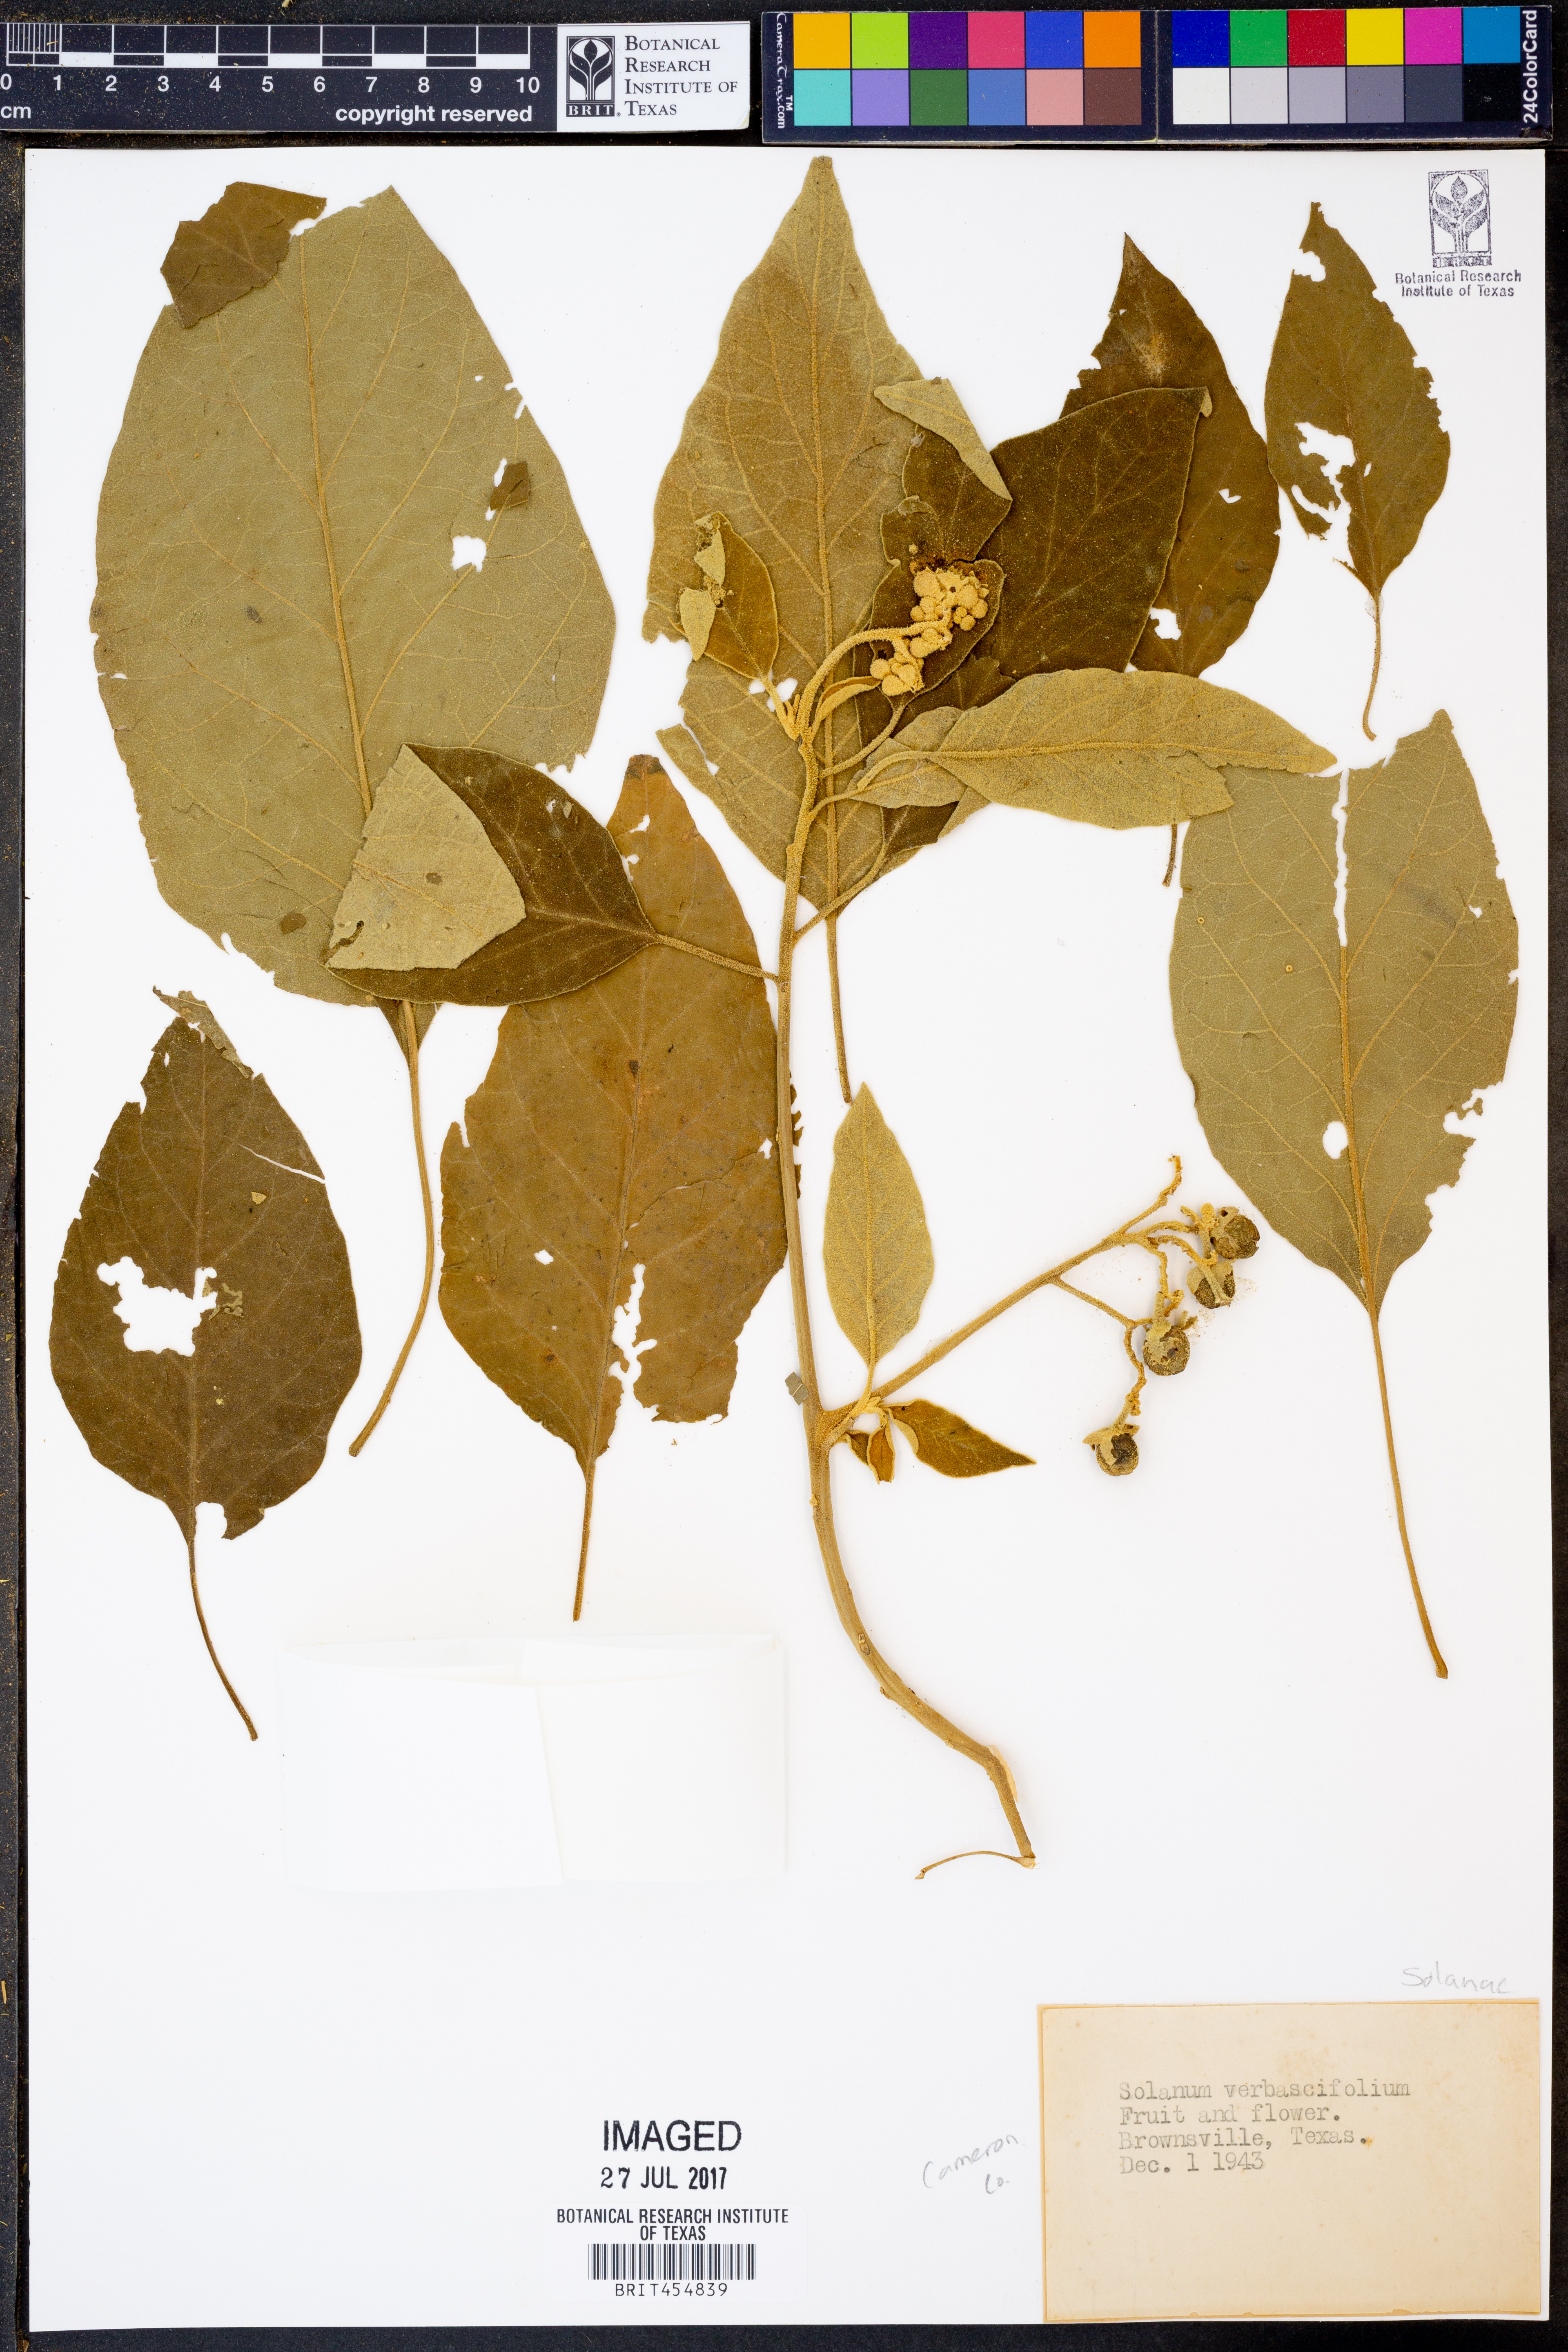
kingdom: Plantae
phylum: Tracheophyta
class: Magnoliopsida
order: Solanales
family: Solanaceae
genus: Solanum
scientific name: Solanum
